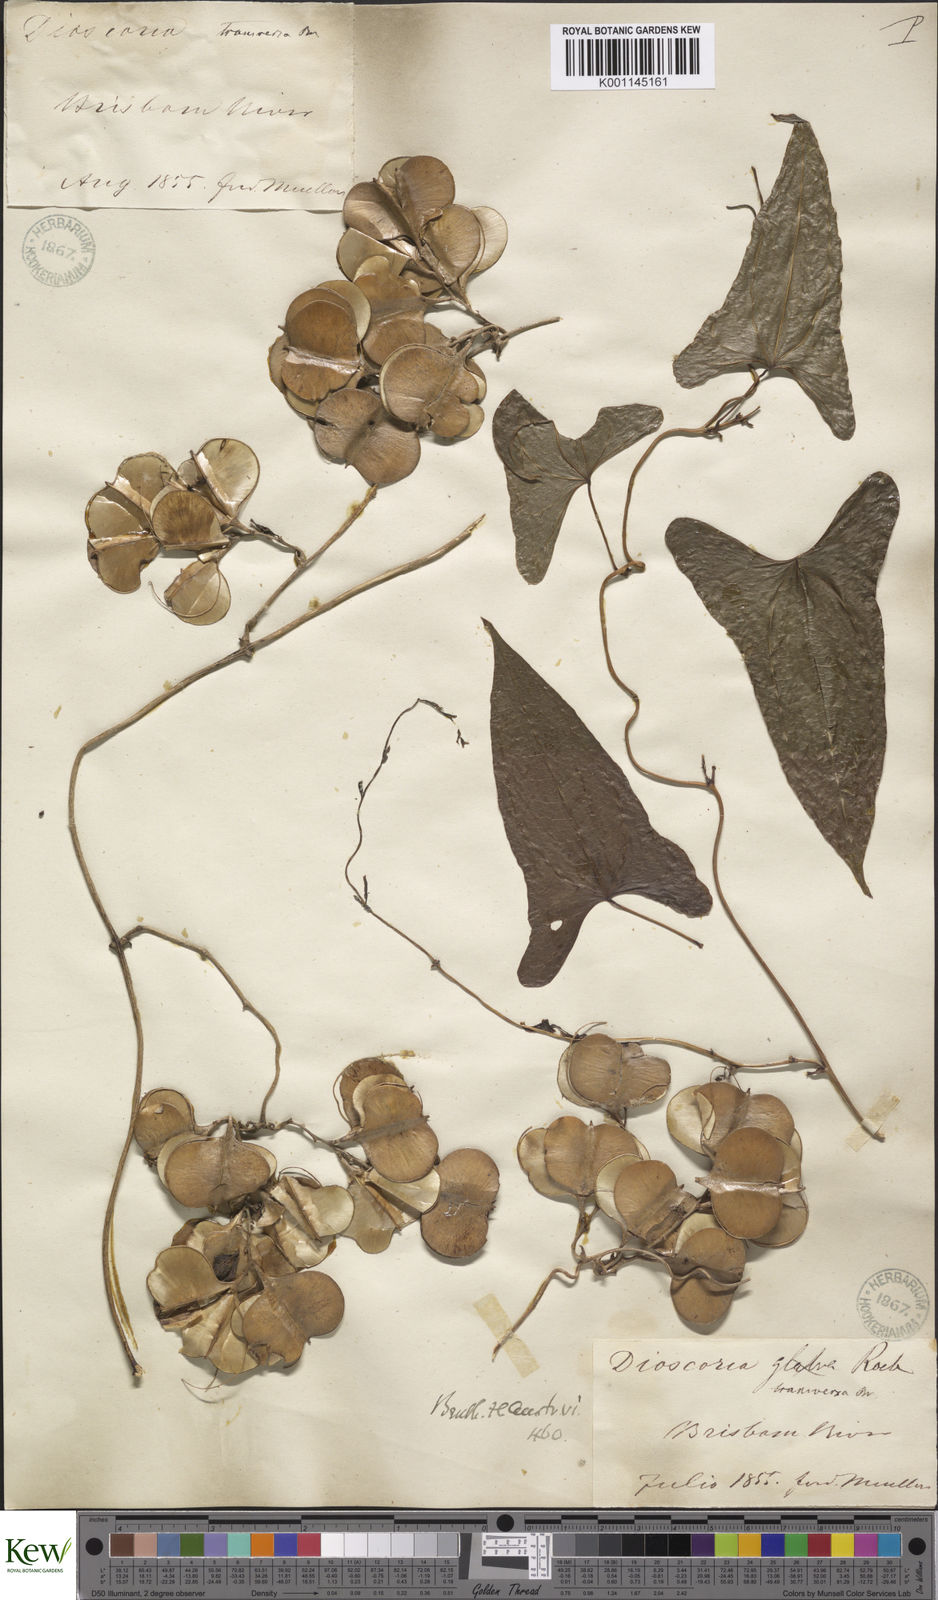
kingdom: Plantae
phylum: Tracheophyta
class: Liliopsida
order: Dioscoreales
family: Dioscoreaceae
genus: Dioscorea
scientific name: Dioscorea transversa
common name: Long yam
